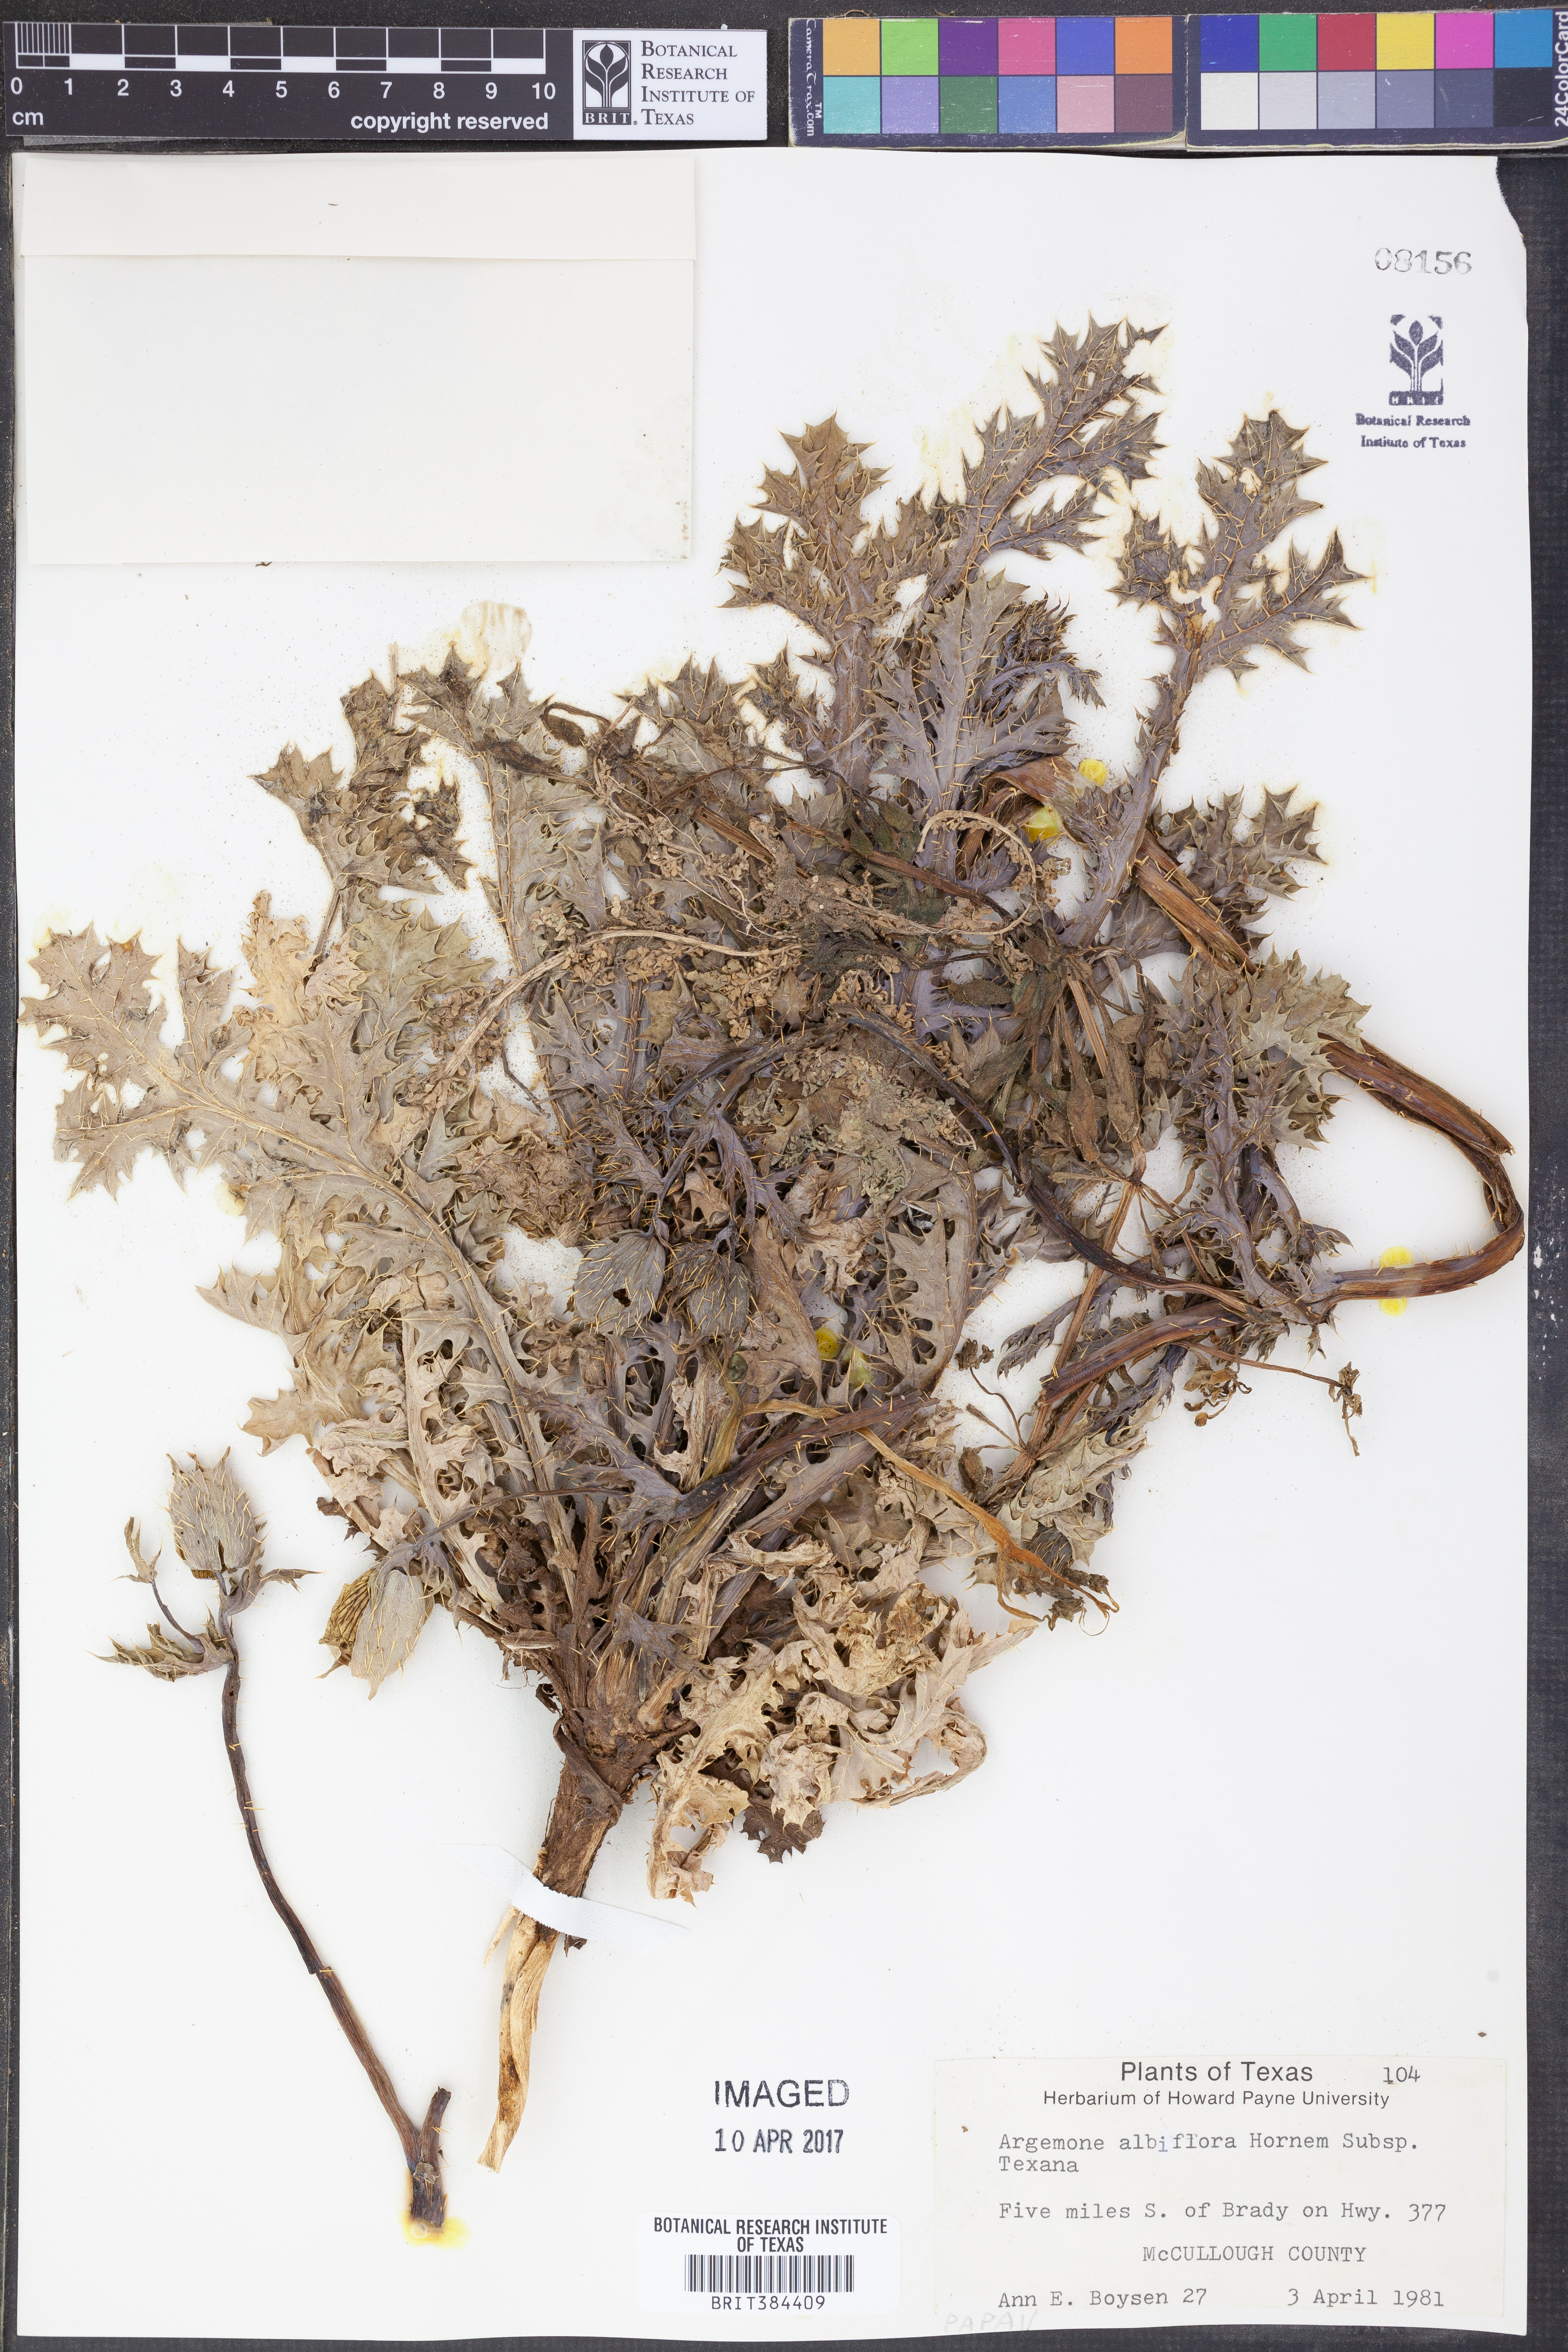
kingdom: Plantae
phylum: Tracheophyta
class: Magnoliopsida
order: Ranunculales
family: Papaveraceae
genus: Argemone
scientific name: Argemone albiflora
